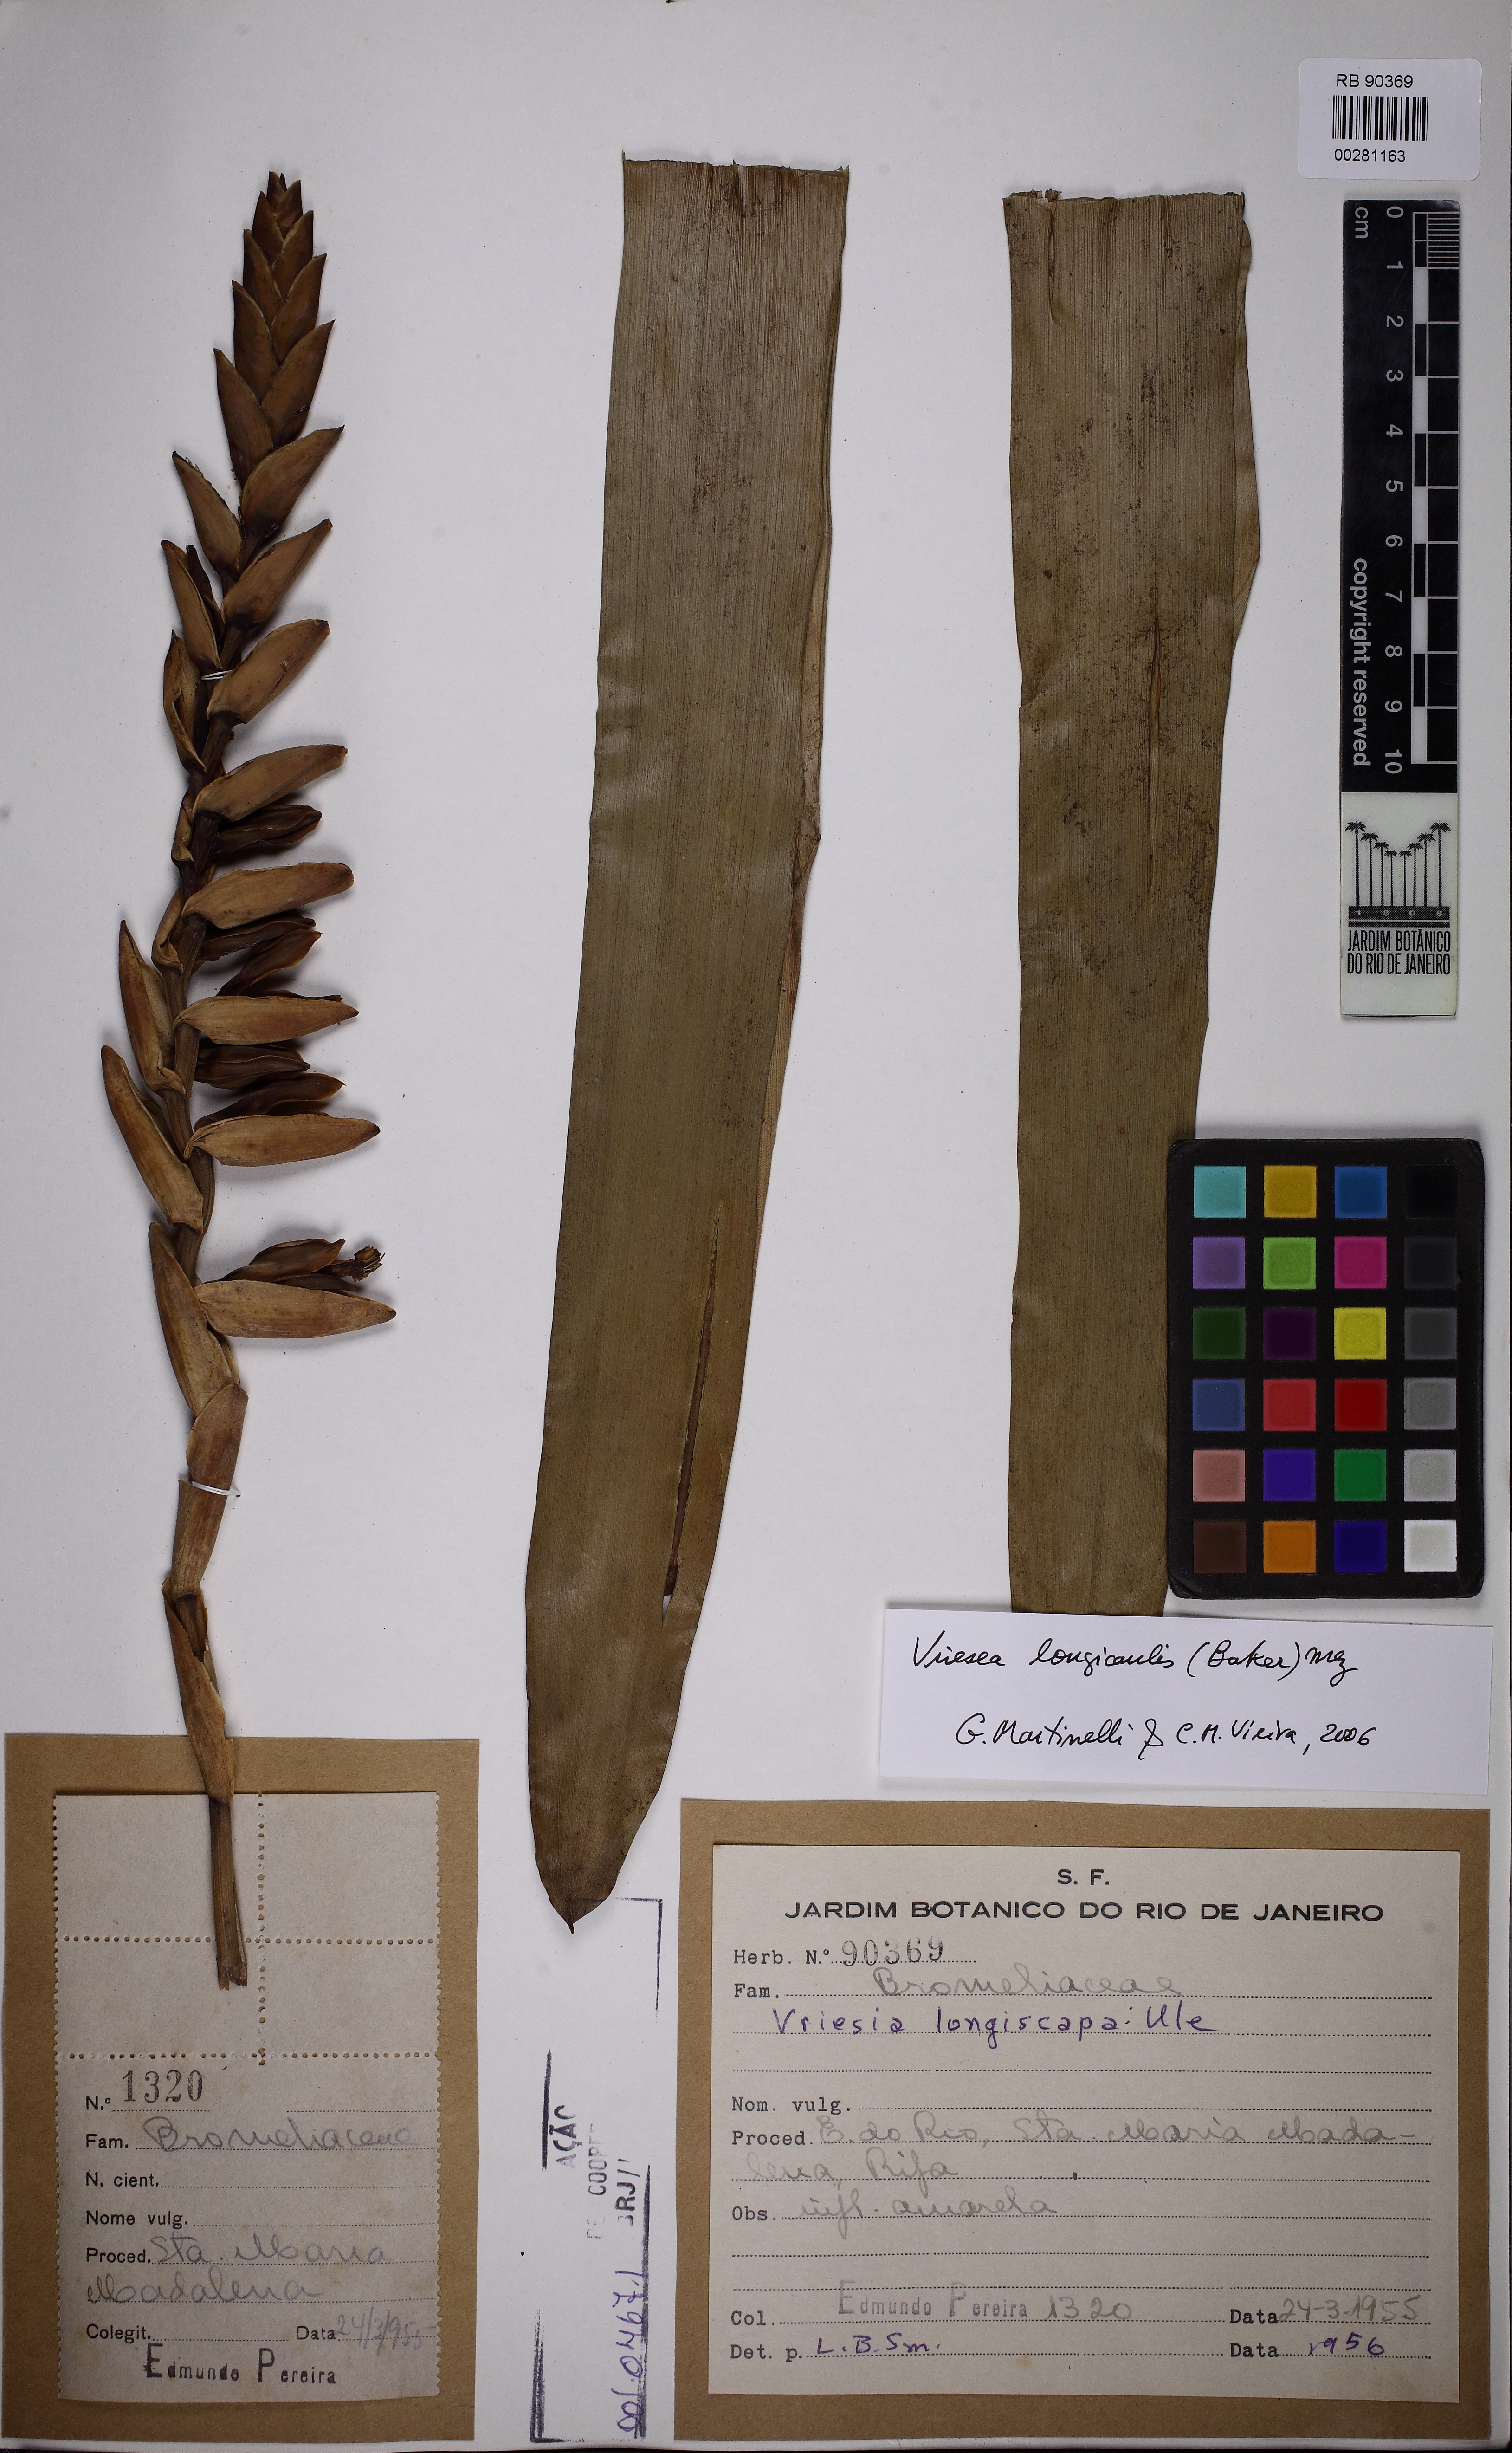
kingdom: Plantae
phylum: Tracheophyta
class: Liliopsida
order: Poales
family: Bromeliaceae
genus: Vriesea
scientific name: Vriesea longiscapa
